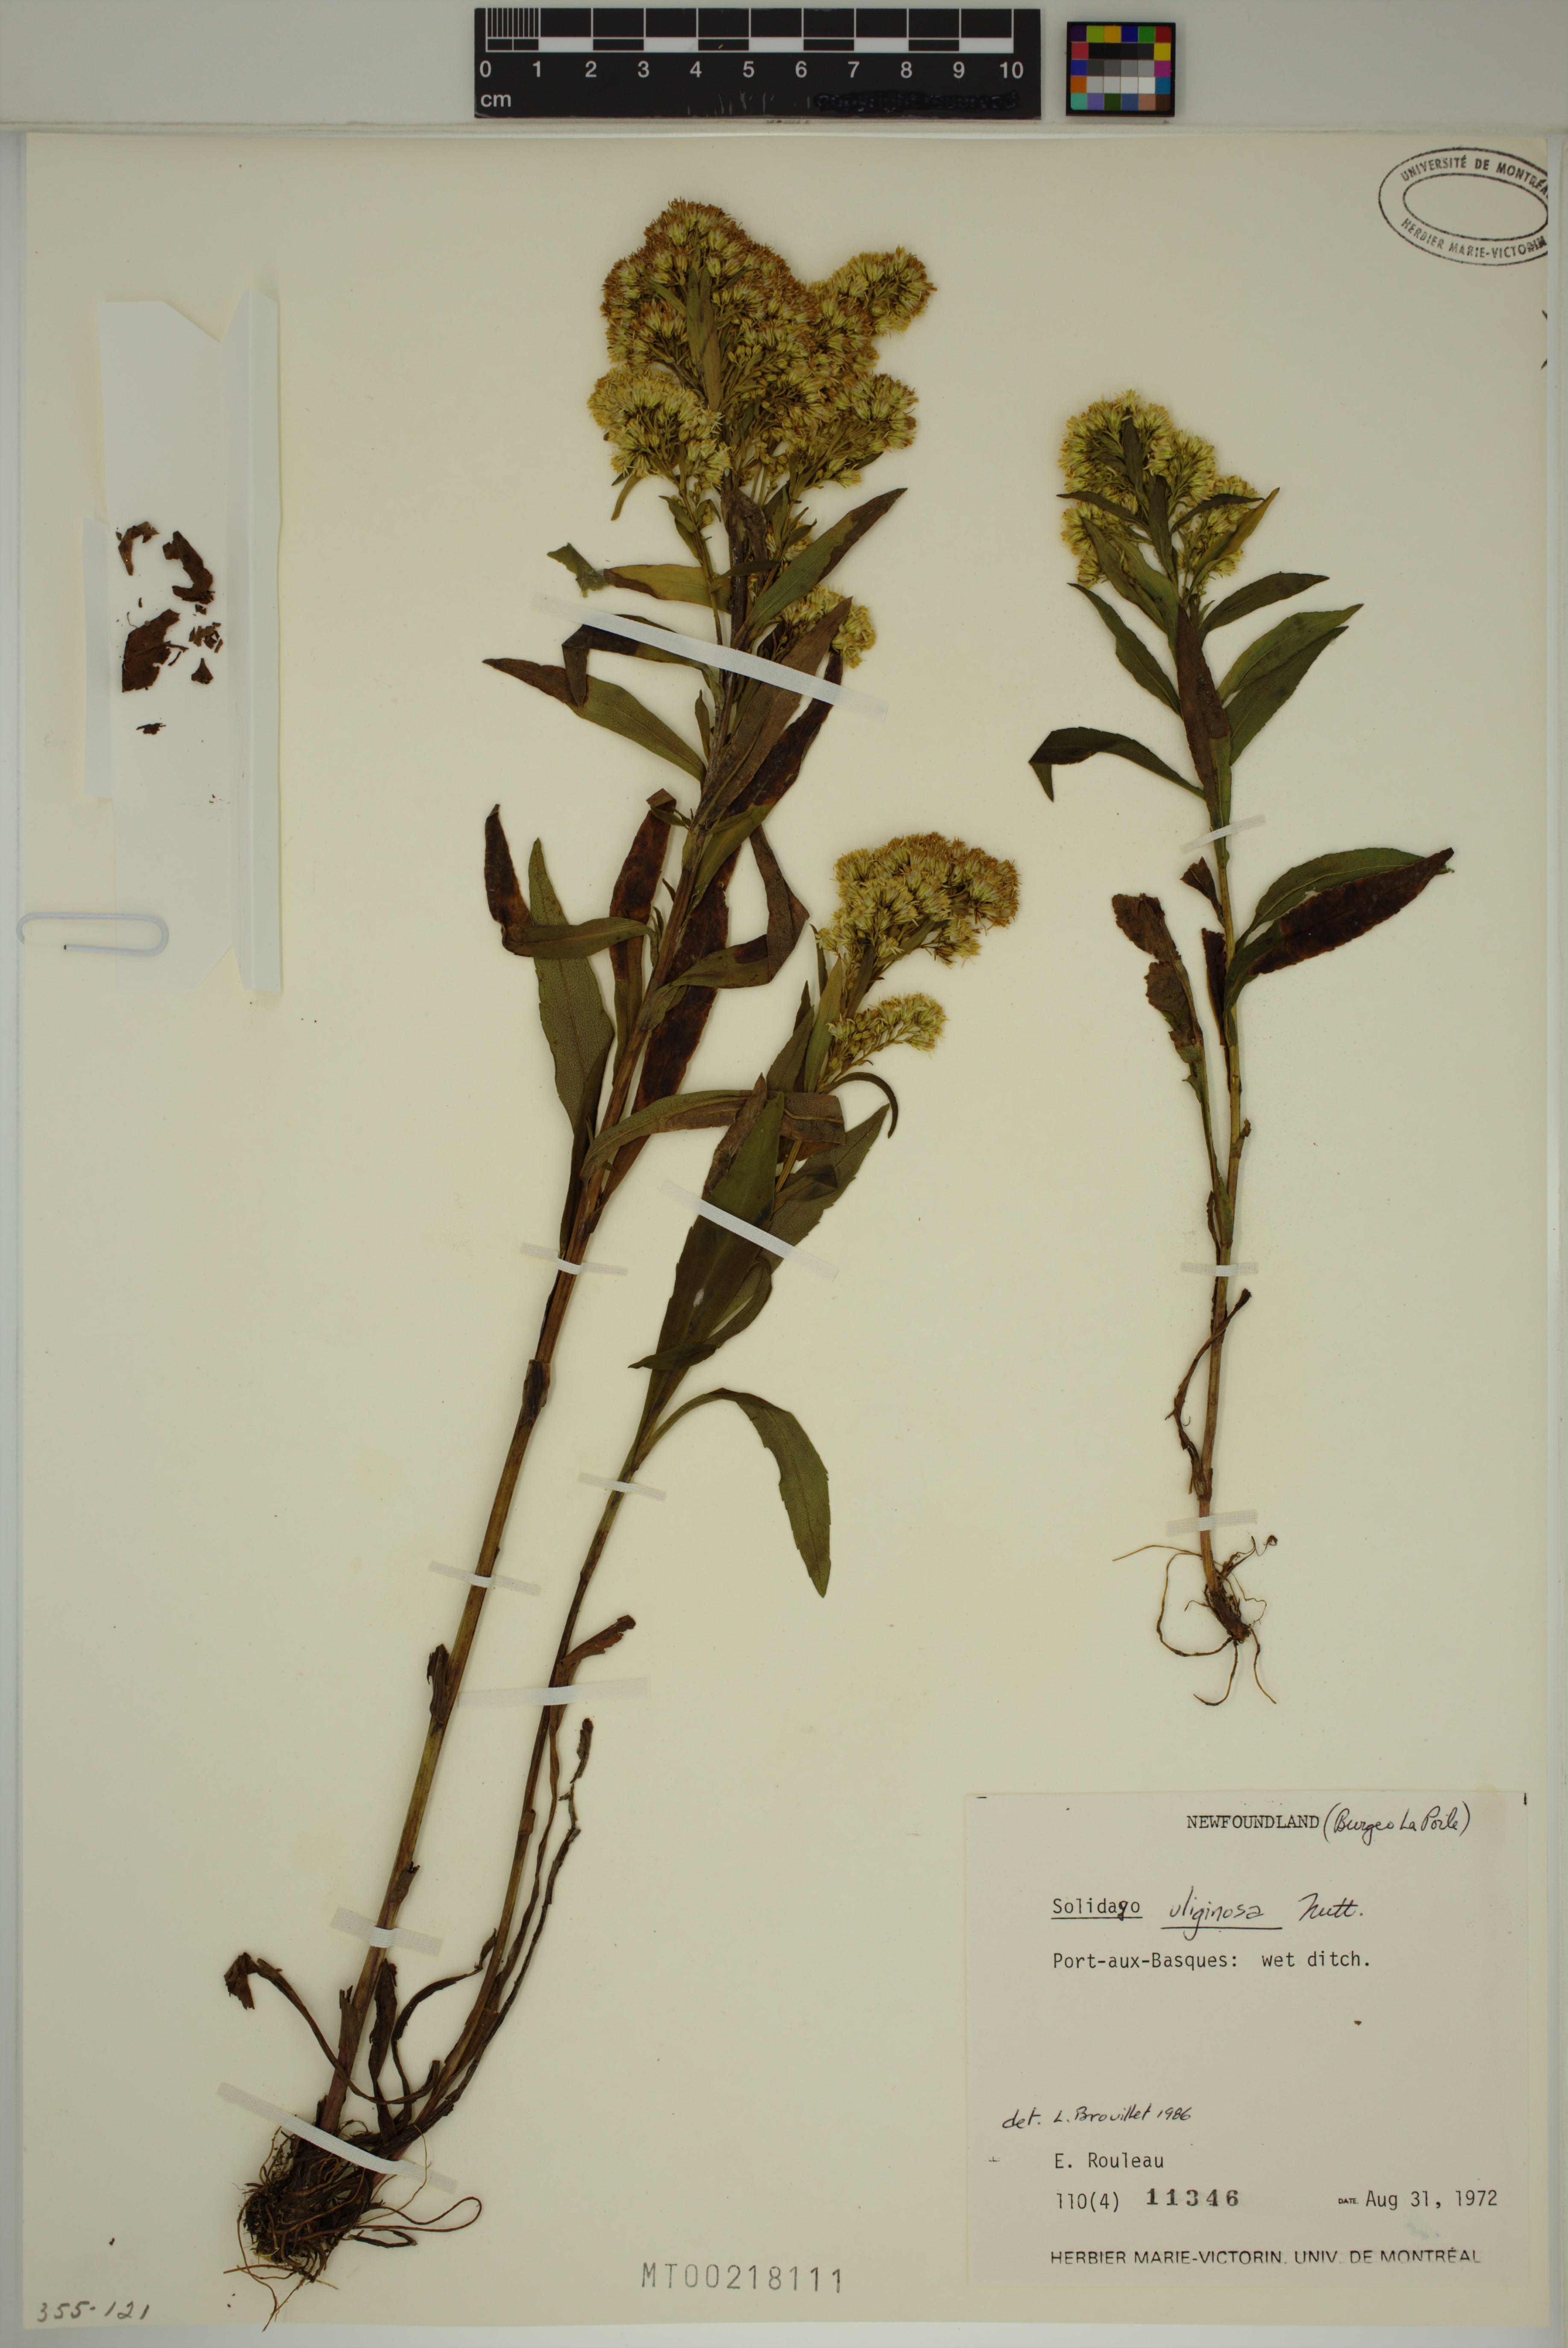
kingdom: Plantae
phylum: Tracheophyta
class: Magnoliopsida
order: Asterales
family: Asteraceae
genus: Solidago
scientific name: Solidago uliginosa
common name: Bog goldenrod
